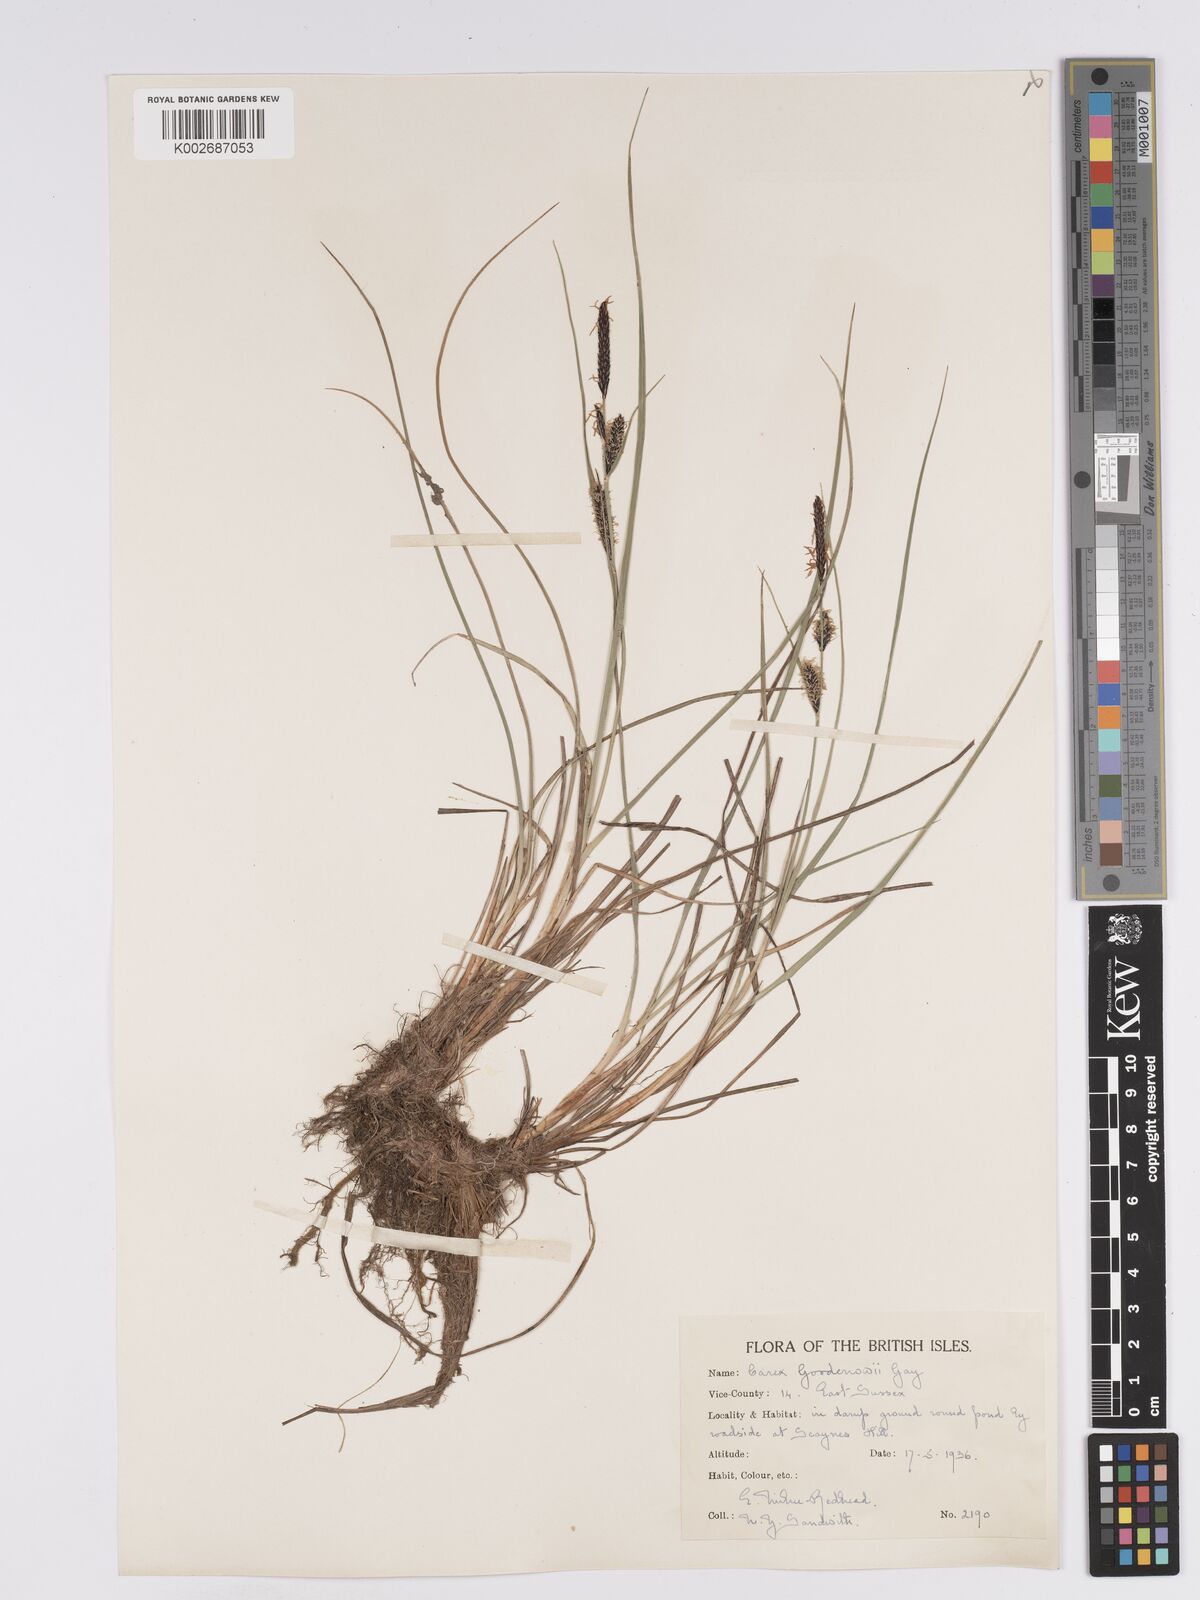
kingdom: Plantae
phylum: Tracheophyta
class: Liliopsida
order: Poales
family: Cyperaceae
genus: Carex
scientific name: Carex nigra
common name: Common sedge
